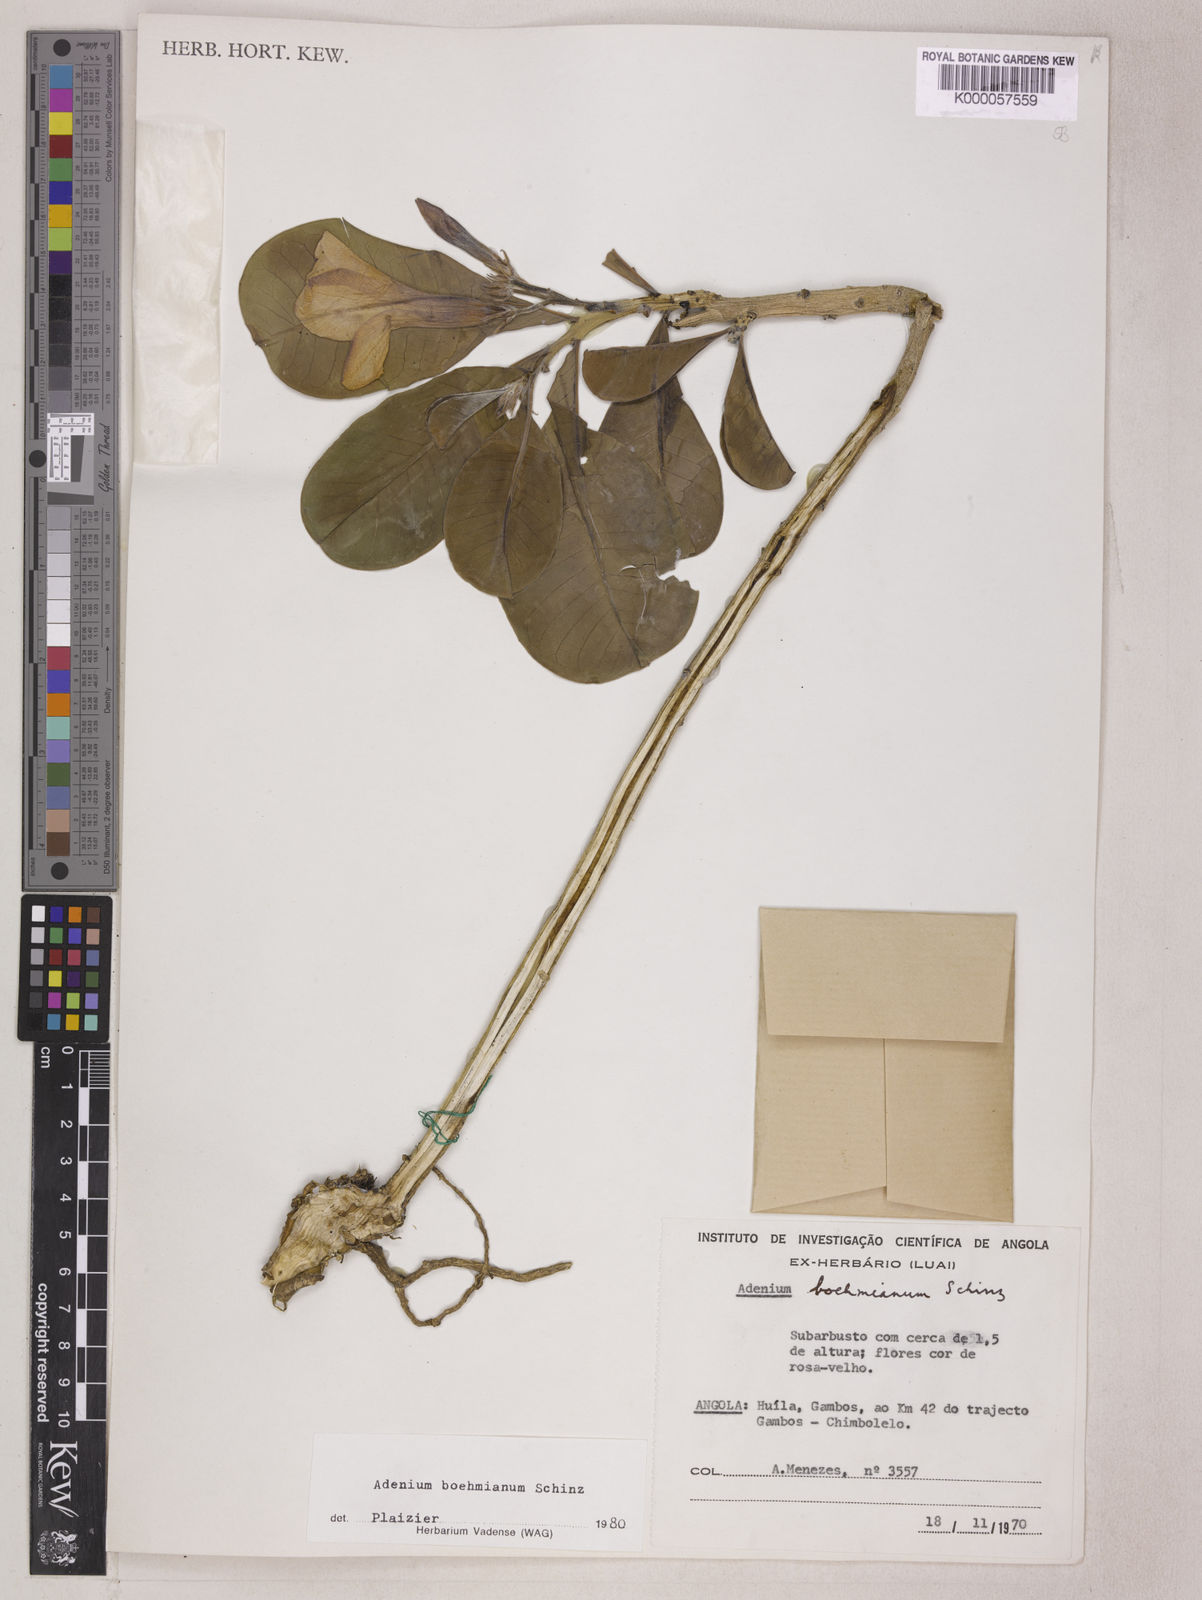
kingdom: Plantae
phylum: Tracheophyta
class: Magnoliopsida
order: Gentianales
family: Apocynaceae
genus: Adenium
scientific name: Adenium obesum
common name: Desert-rose
